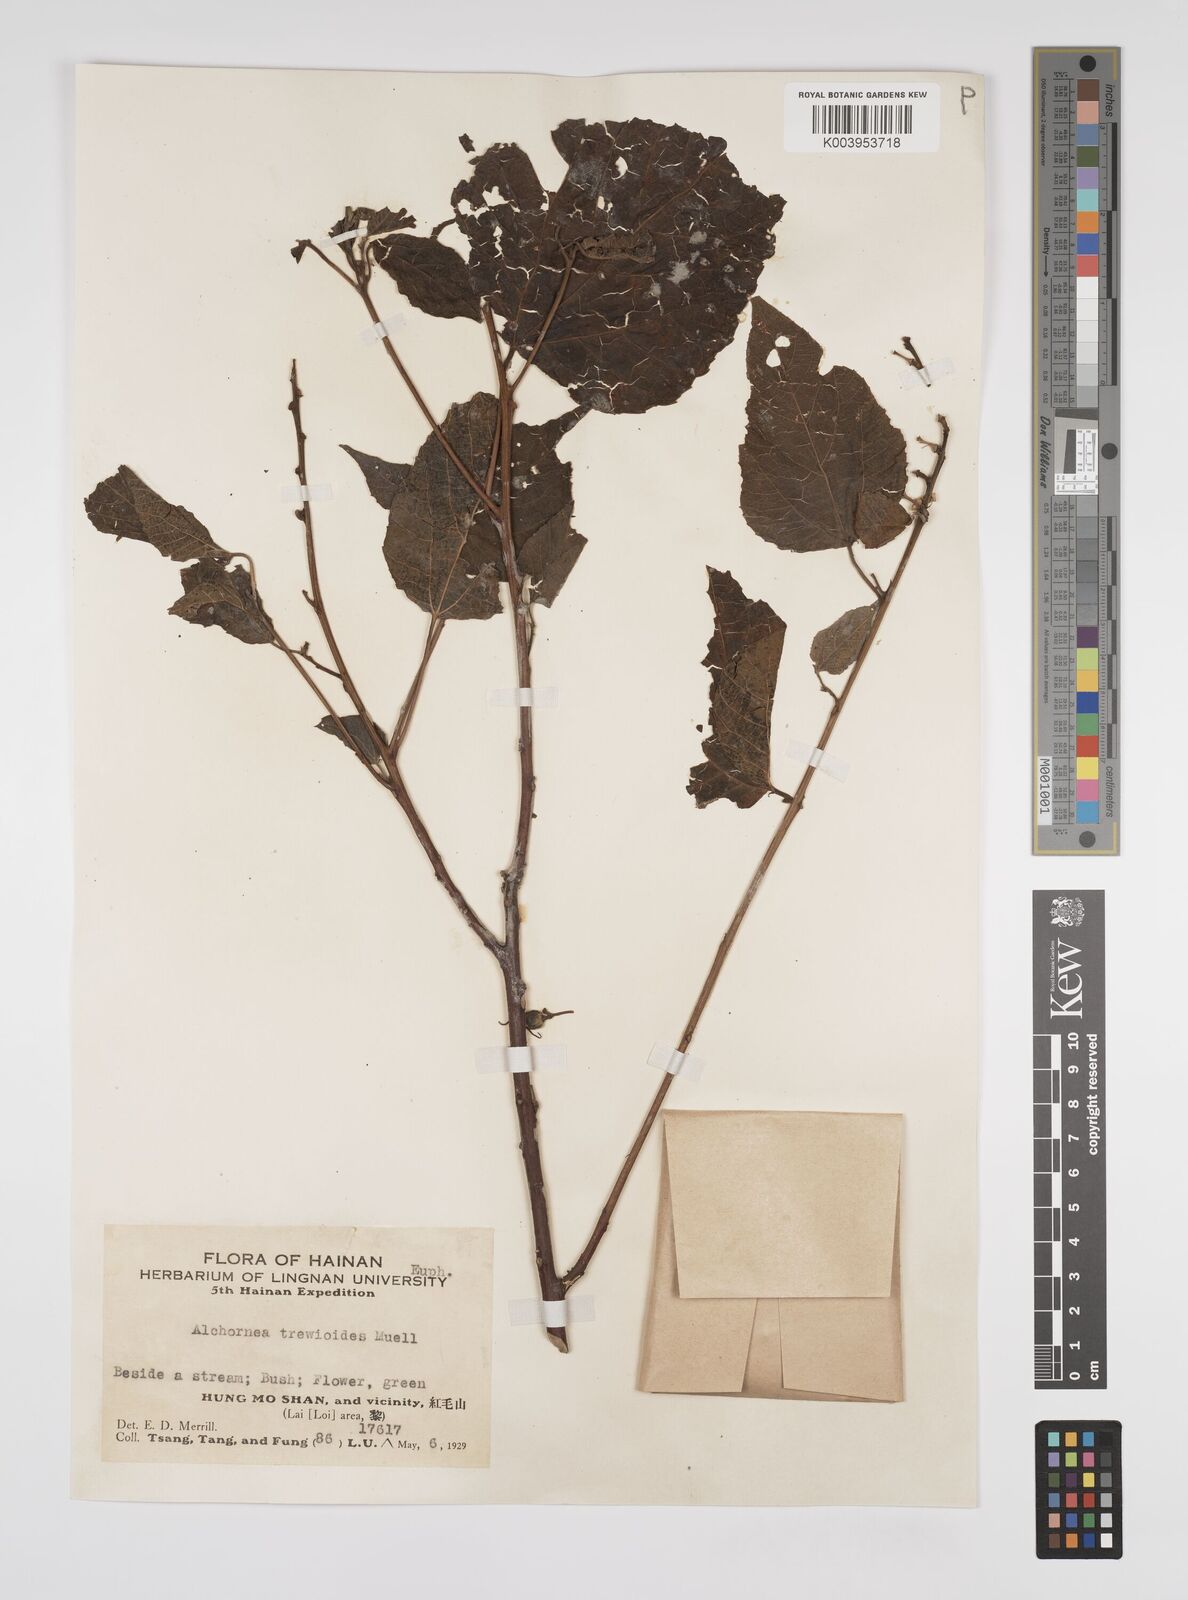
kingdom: Plantae
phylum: Tracheophyta
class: Magnoliopsida
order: Malpighiales
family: Euphorbiaceae
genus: Alchornea
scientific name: Alchornea trewioides
